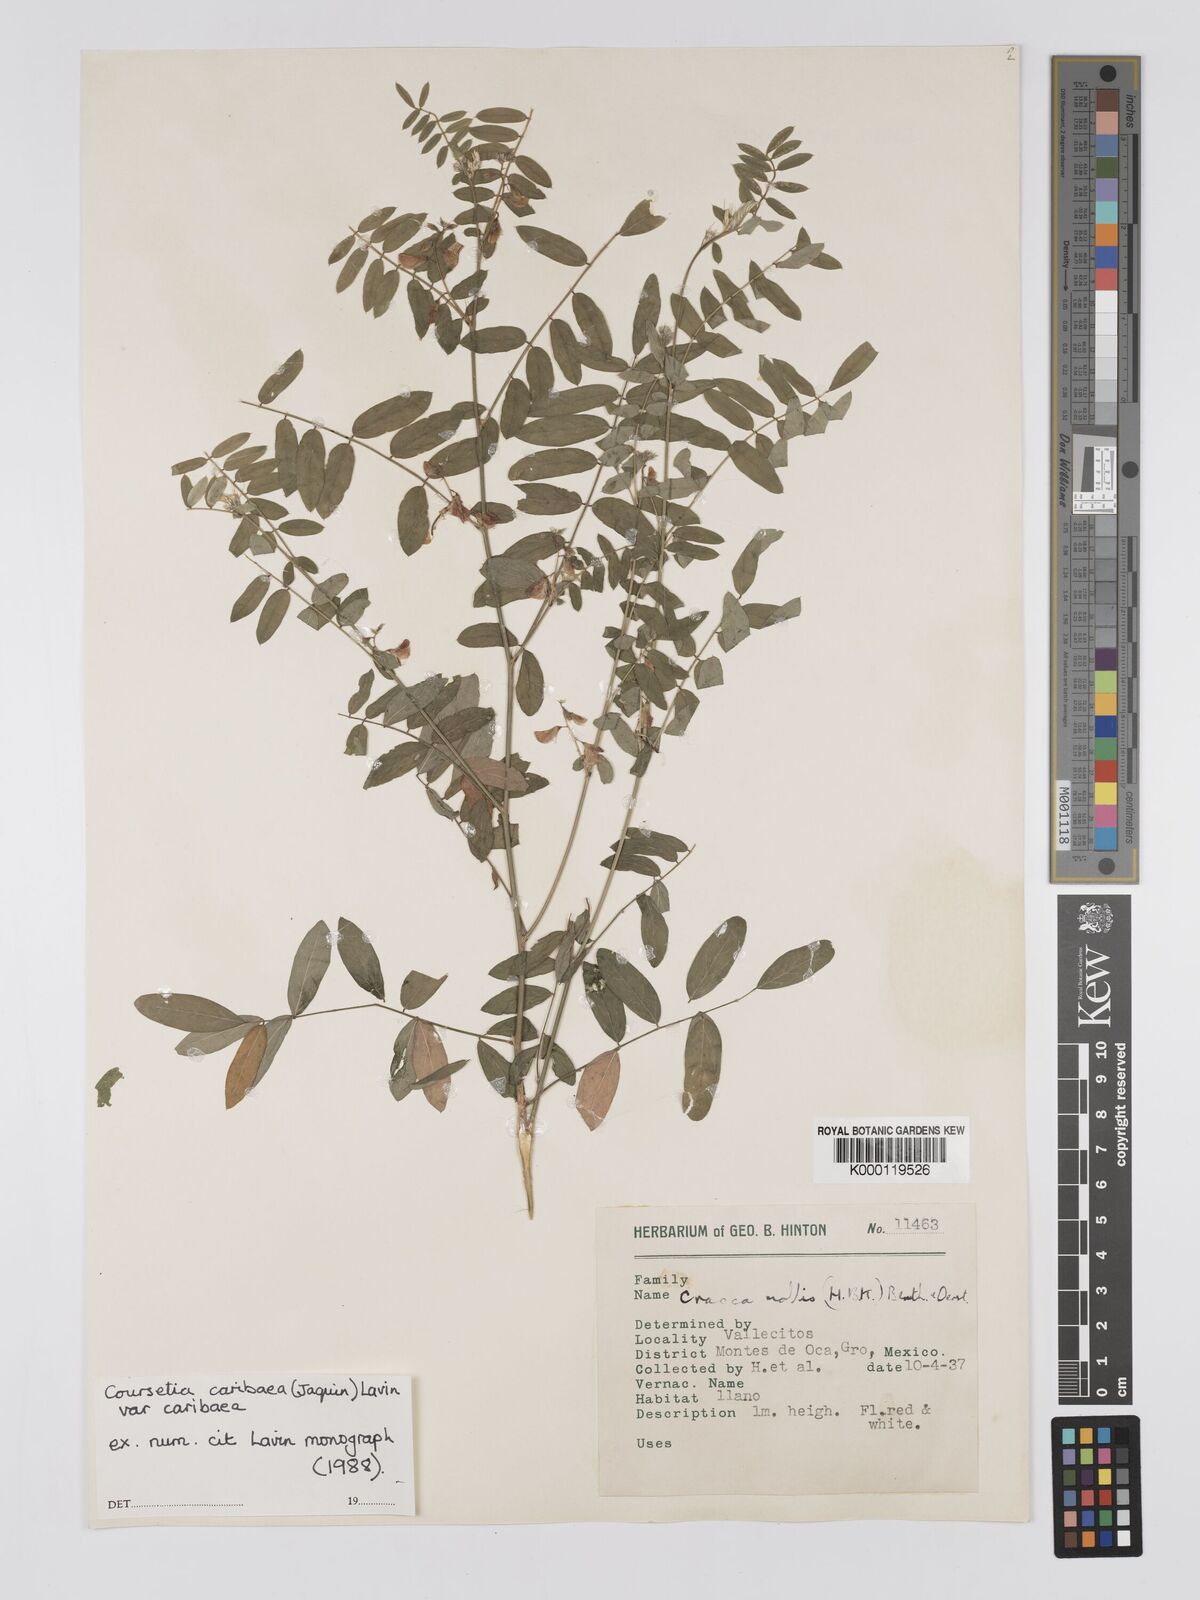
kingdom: Plantae
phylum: Tracheophyta
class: Magnoliopsida
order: Fabales
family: Fabaceae
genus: Coursetia
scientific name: Coursetia caribaea
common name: Anil falso
